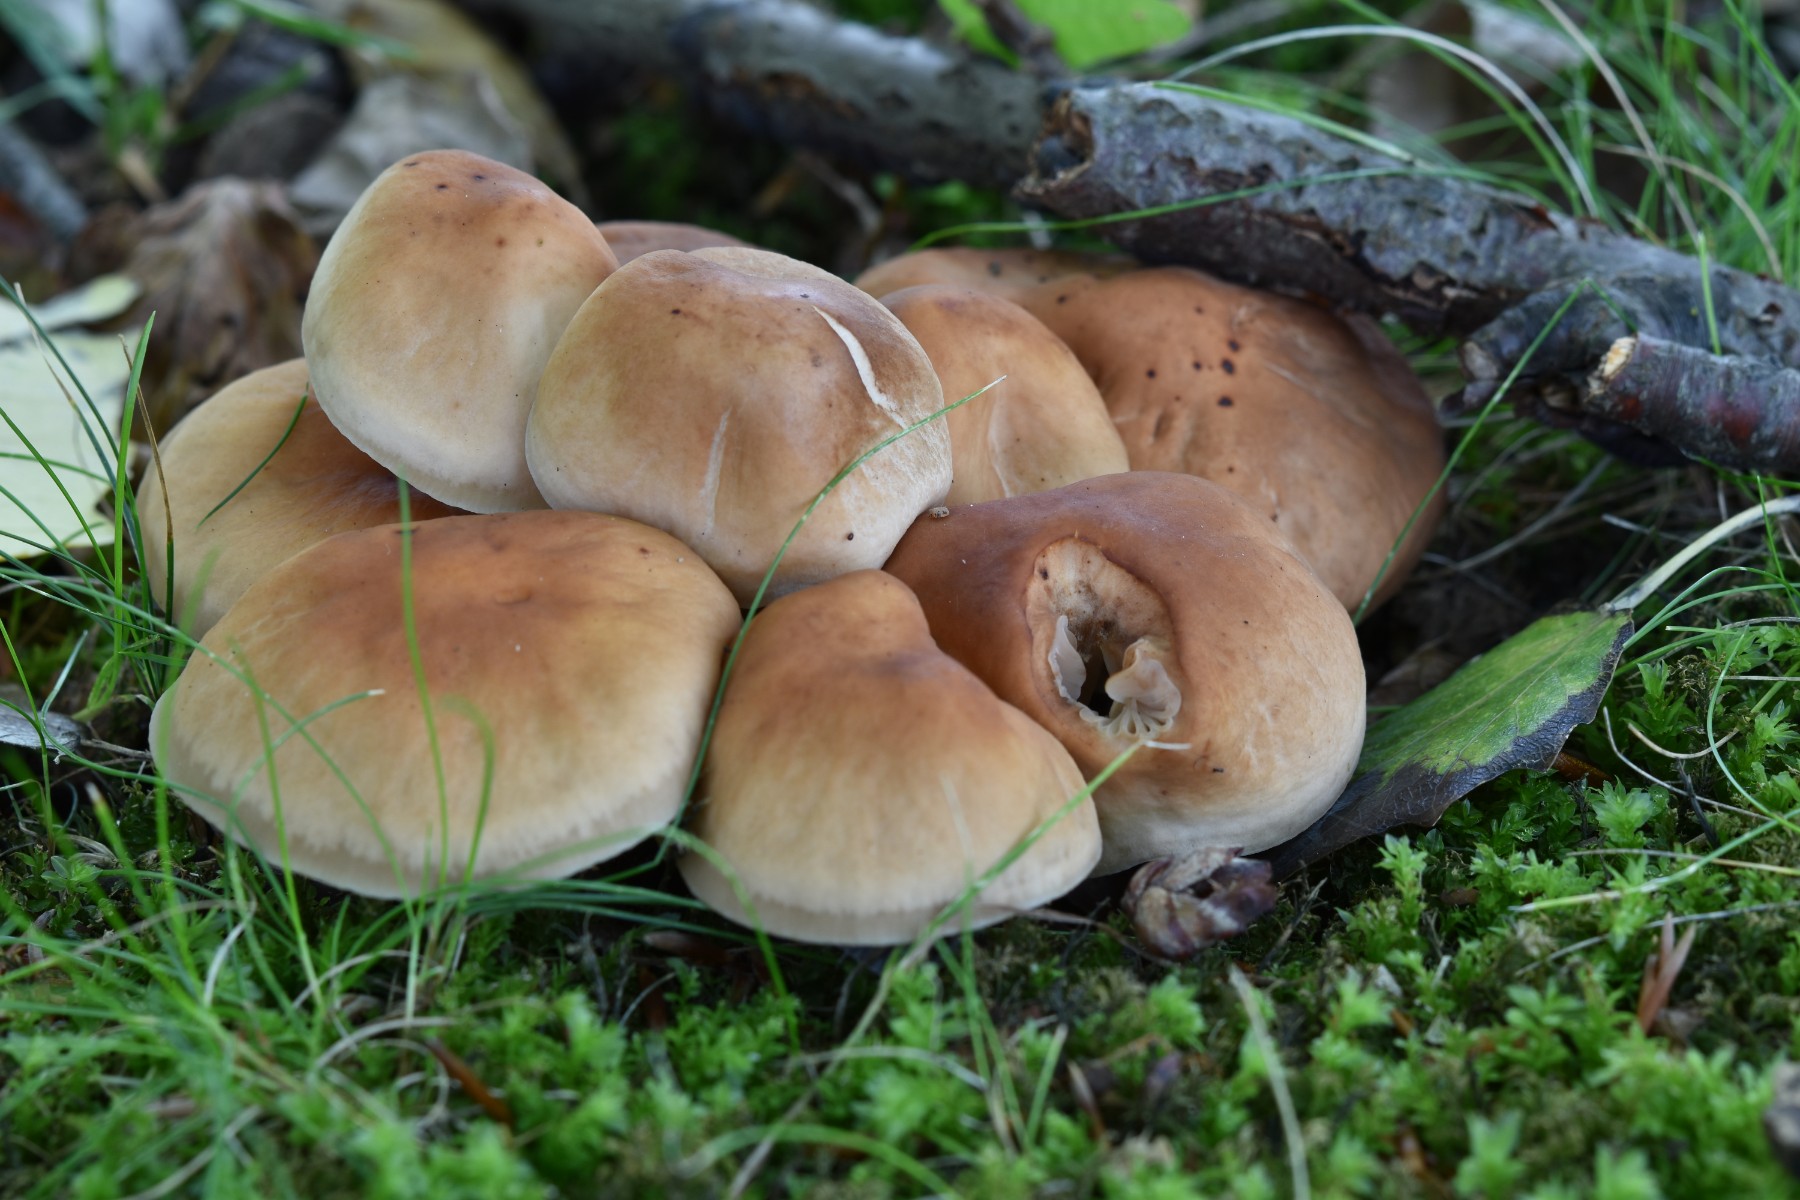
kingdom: Fungi
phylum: Basidiomycota
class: Agaricomycetes
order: Agaricales
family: Omphalotaceae
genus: Gymnopus
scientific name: Gymnopus fusipes
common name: tenstokket fladhat
